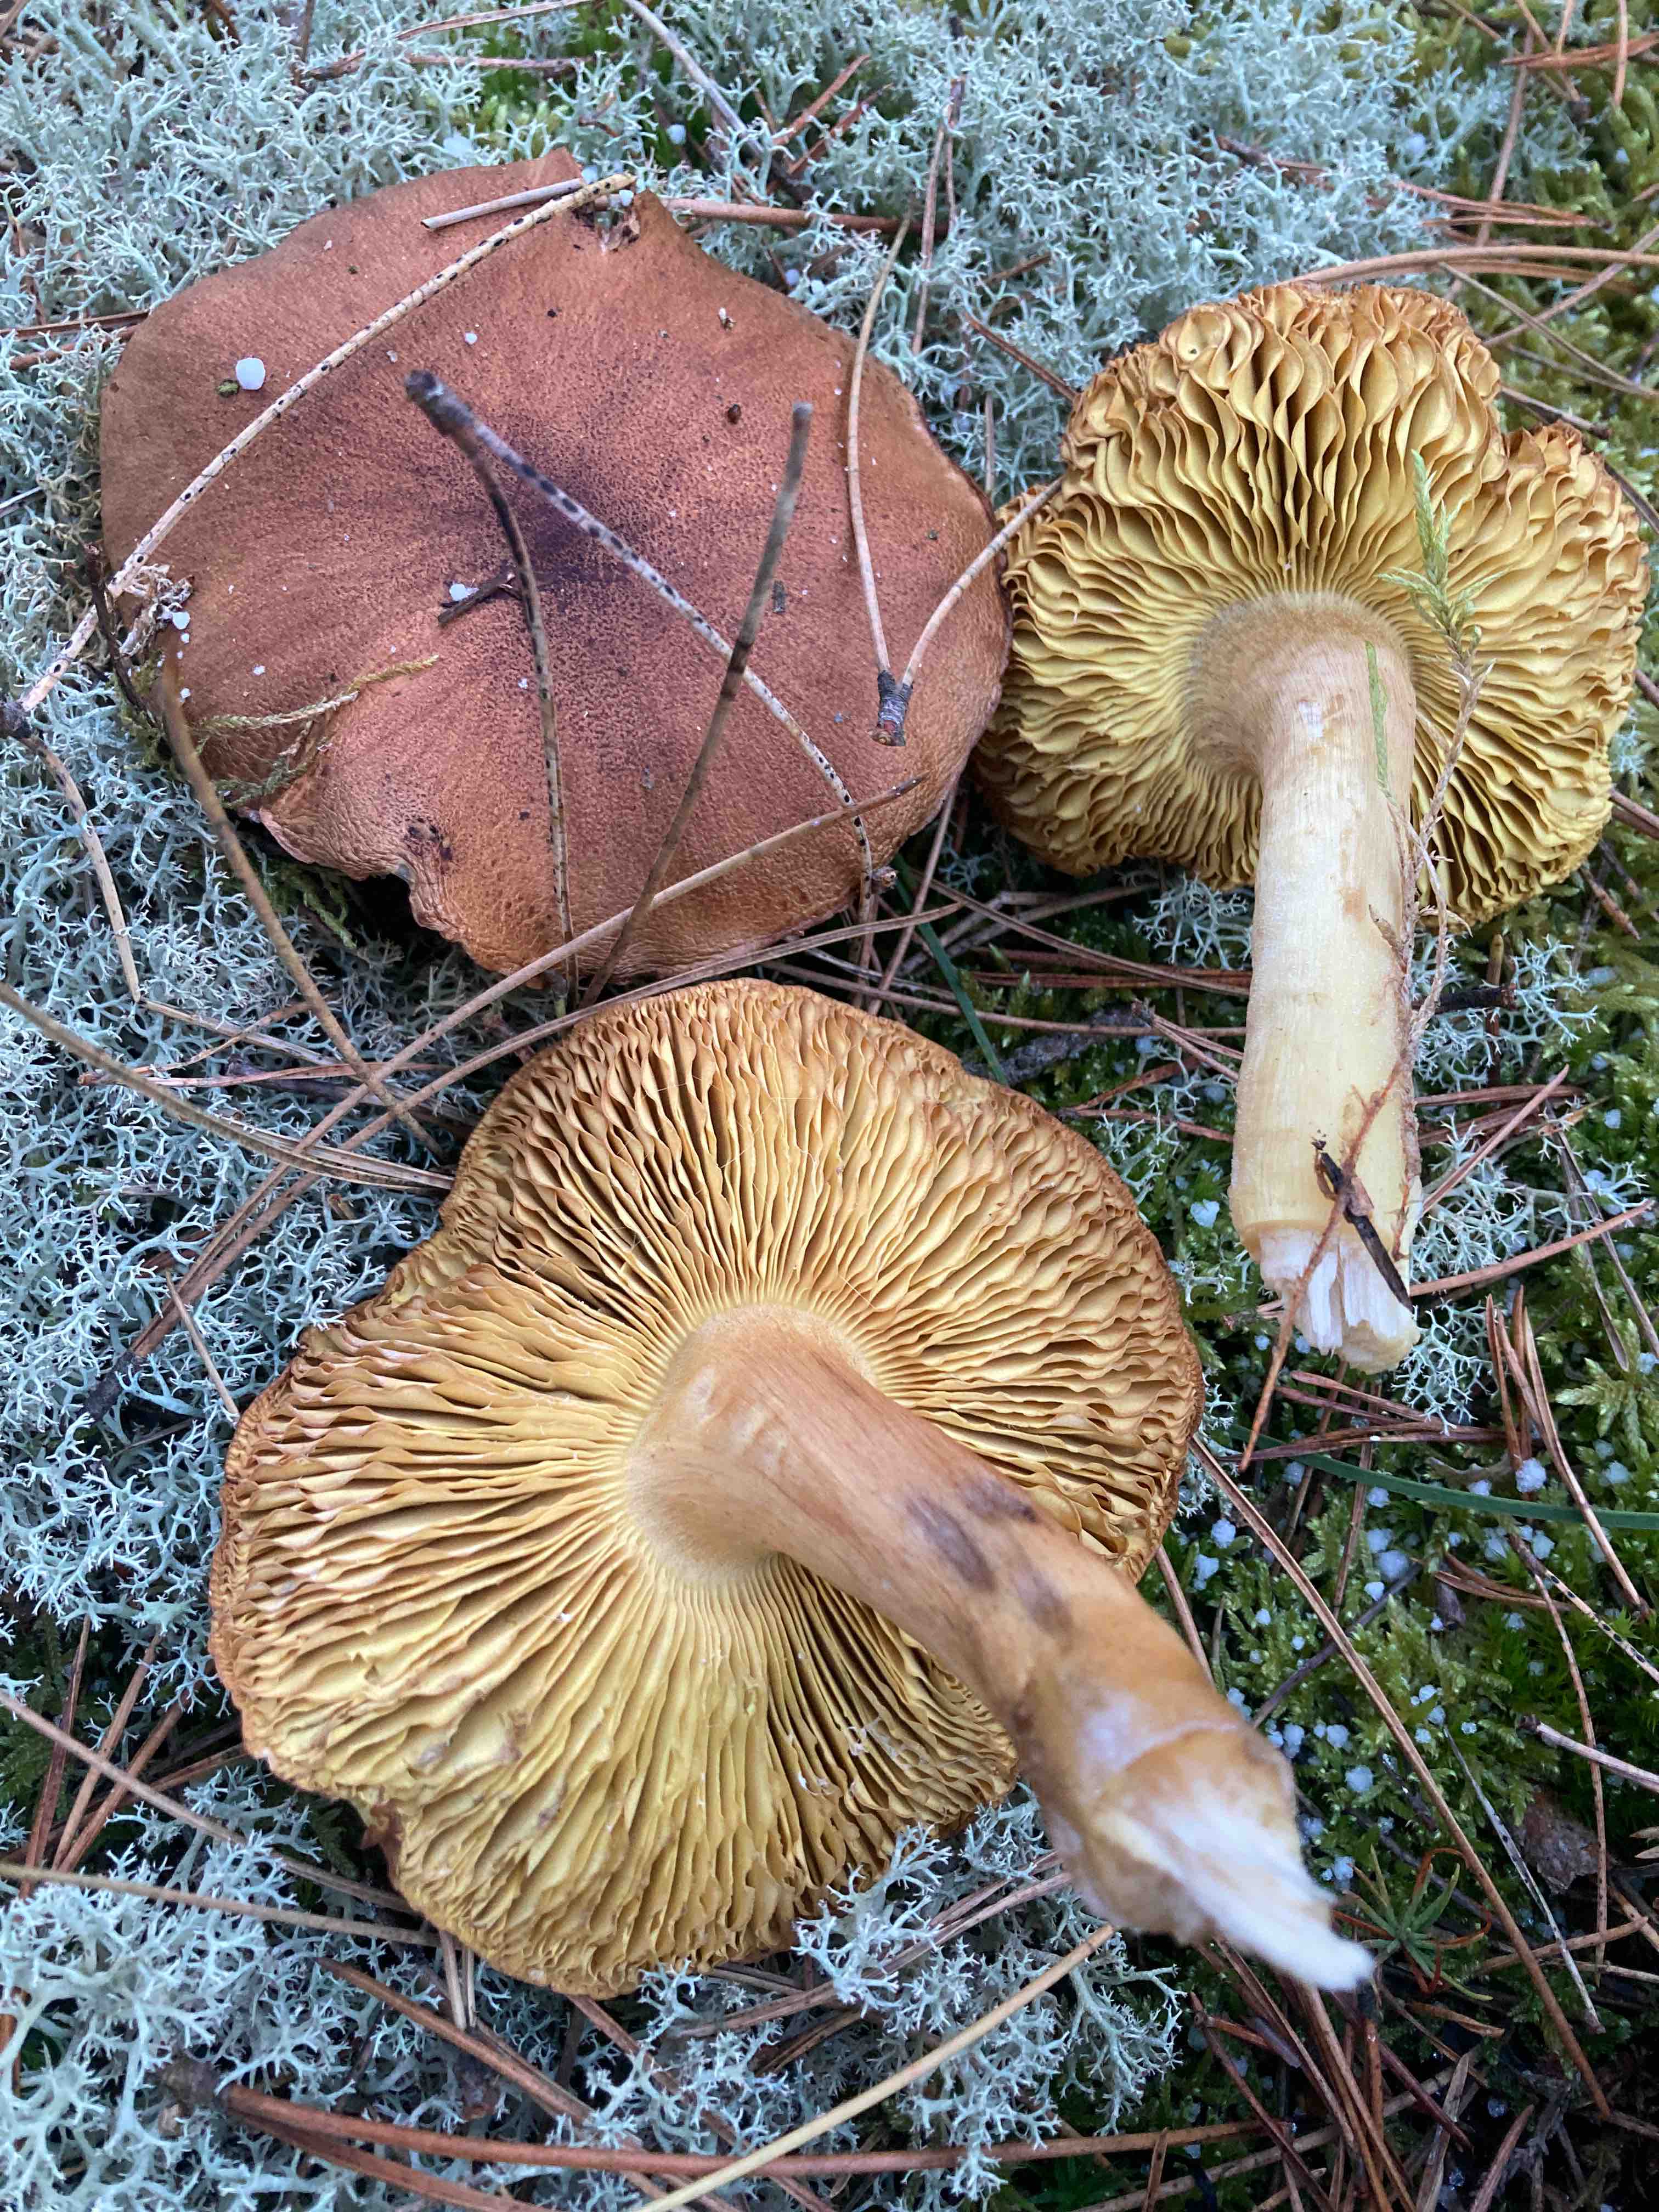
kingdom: Fungi
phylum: Basidiomycota
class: Agaricomycetes
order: Agaricales
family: Tricholomataceae
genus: Tricholoma
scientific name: Tricholoma equestre
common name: ægte ridderhat
